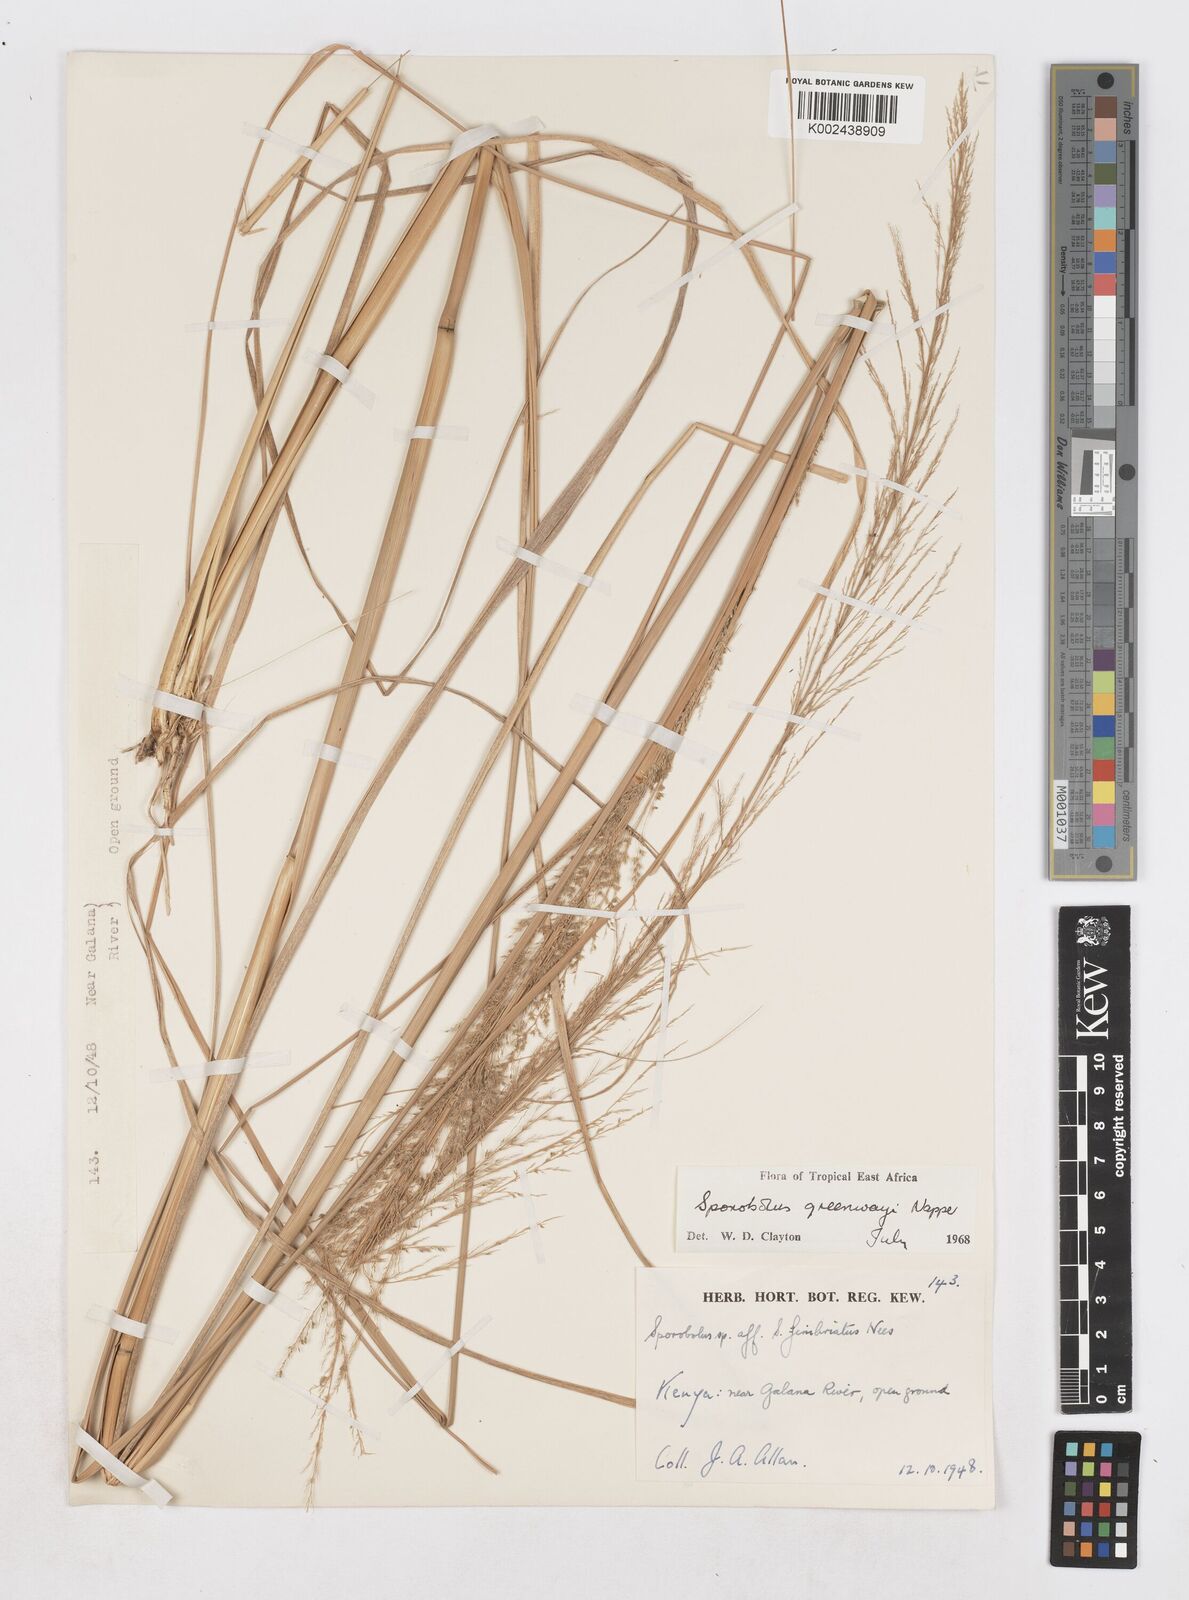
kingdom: Plantae
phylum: Tracheophyta
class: Liliopsida
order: Poales
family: Poaceae
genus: Sporobolus
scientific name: Sporobolus macranthelus
